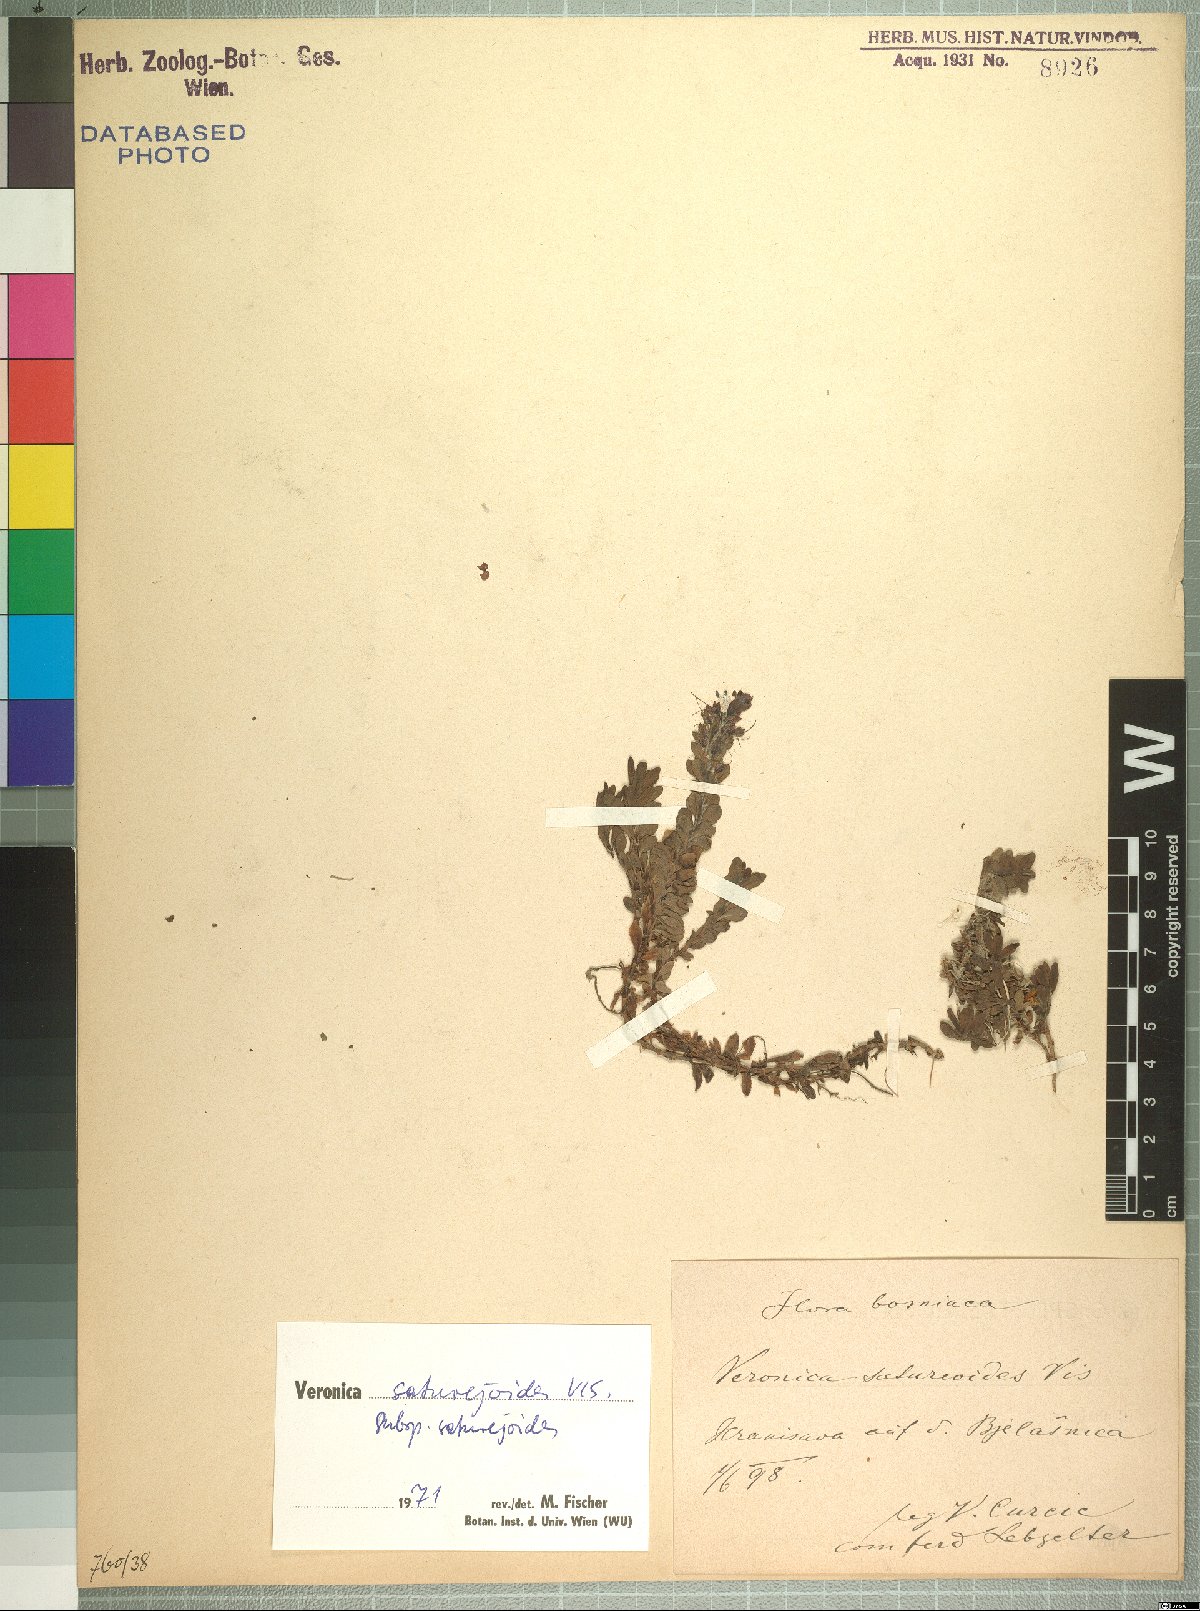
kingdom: Plantae
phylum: Tracheophyta
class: Magnoliopsida
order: Lamiales
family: Plantaginaceae
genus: Veronica
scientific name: Veronica saturejoides
